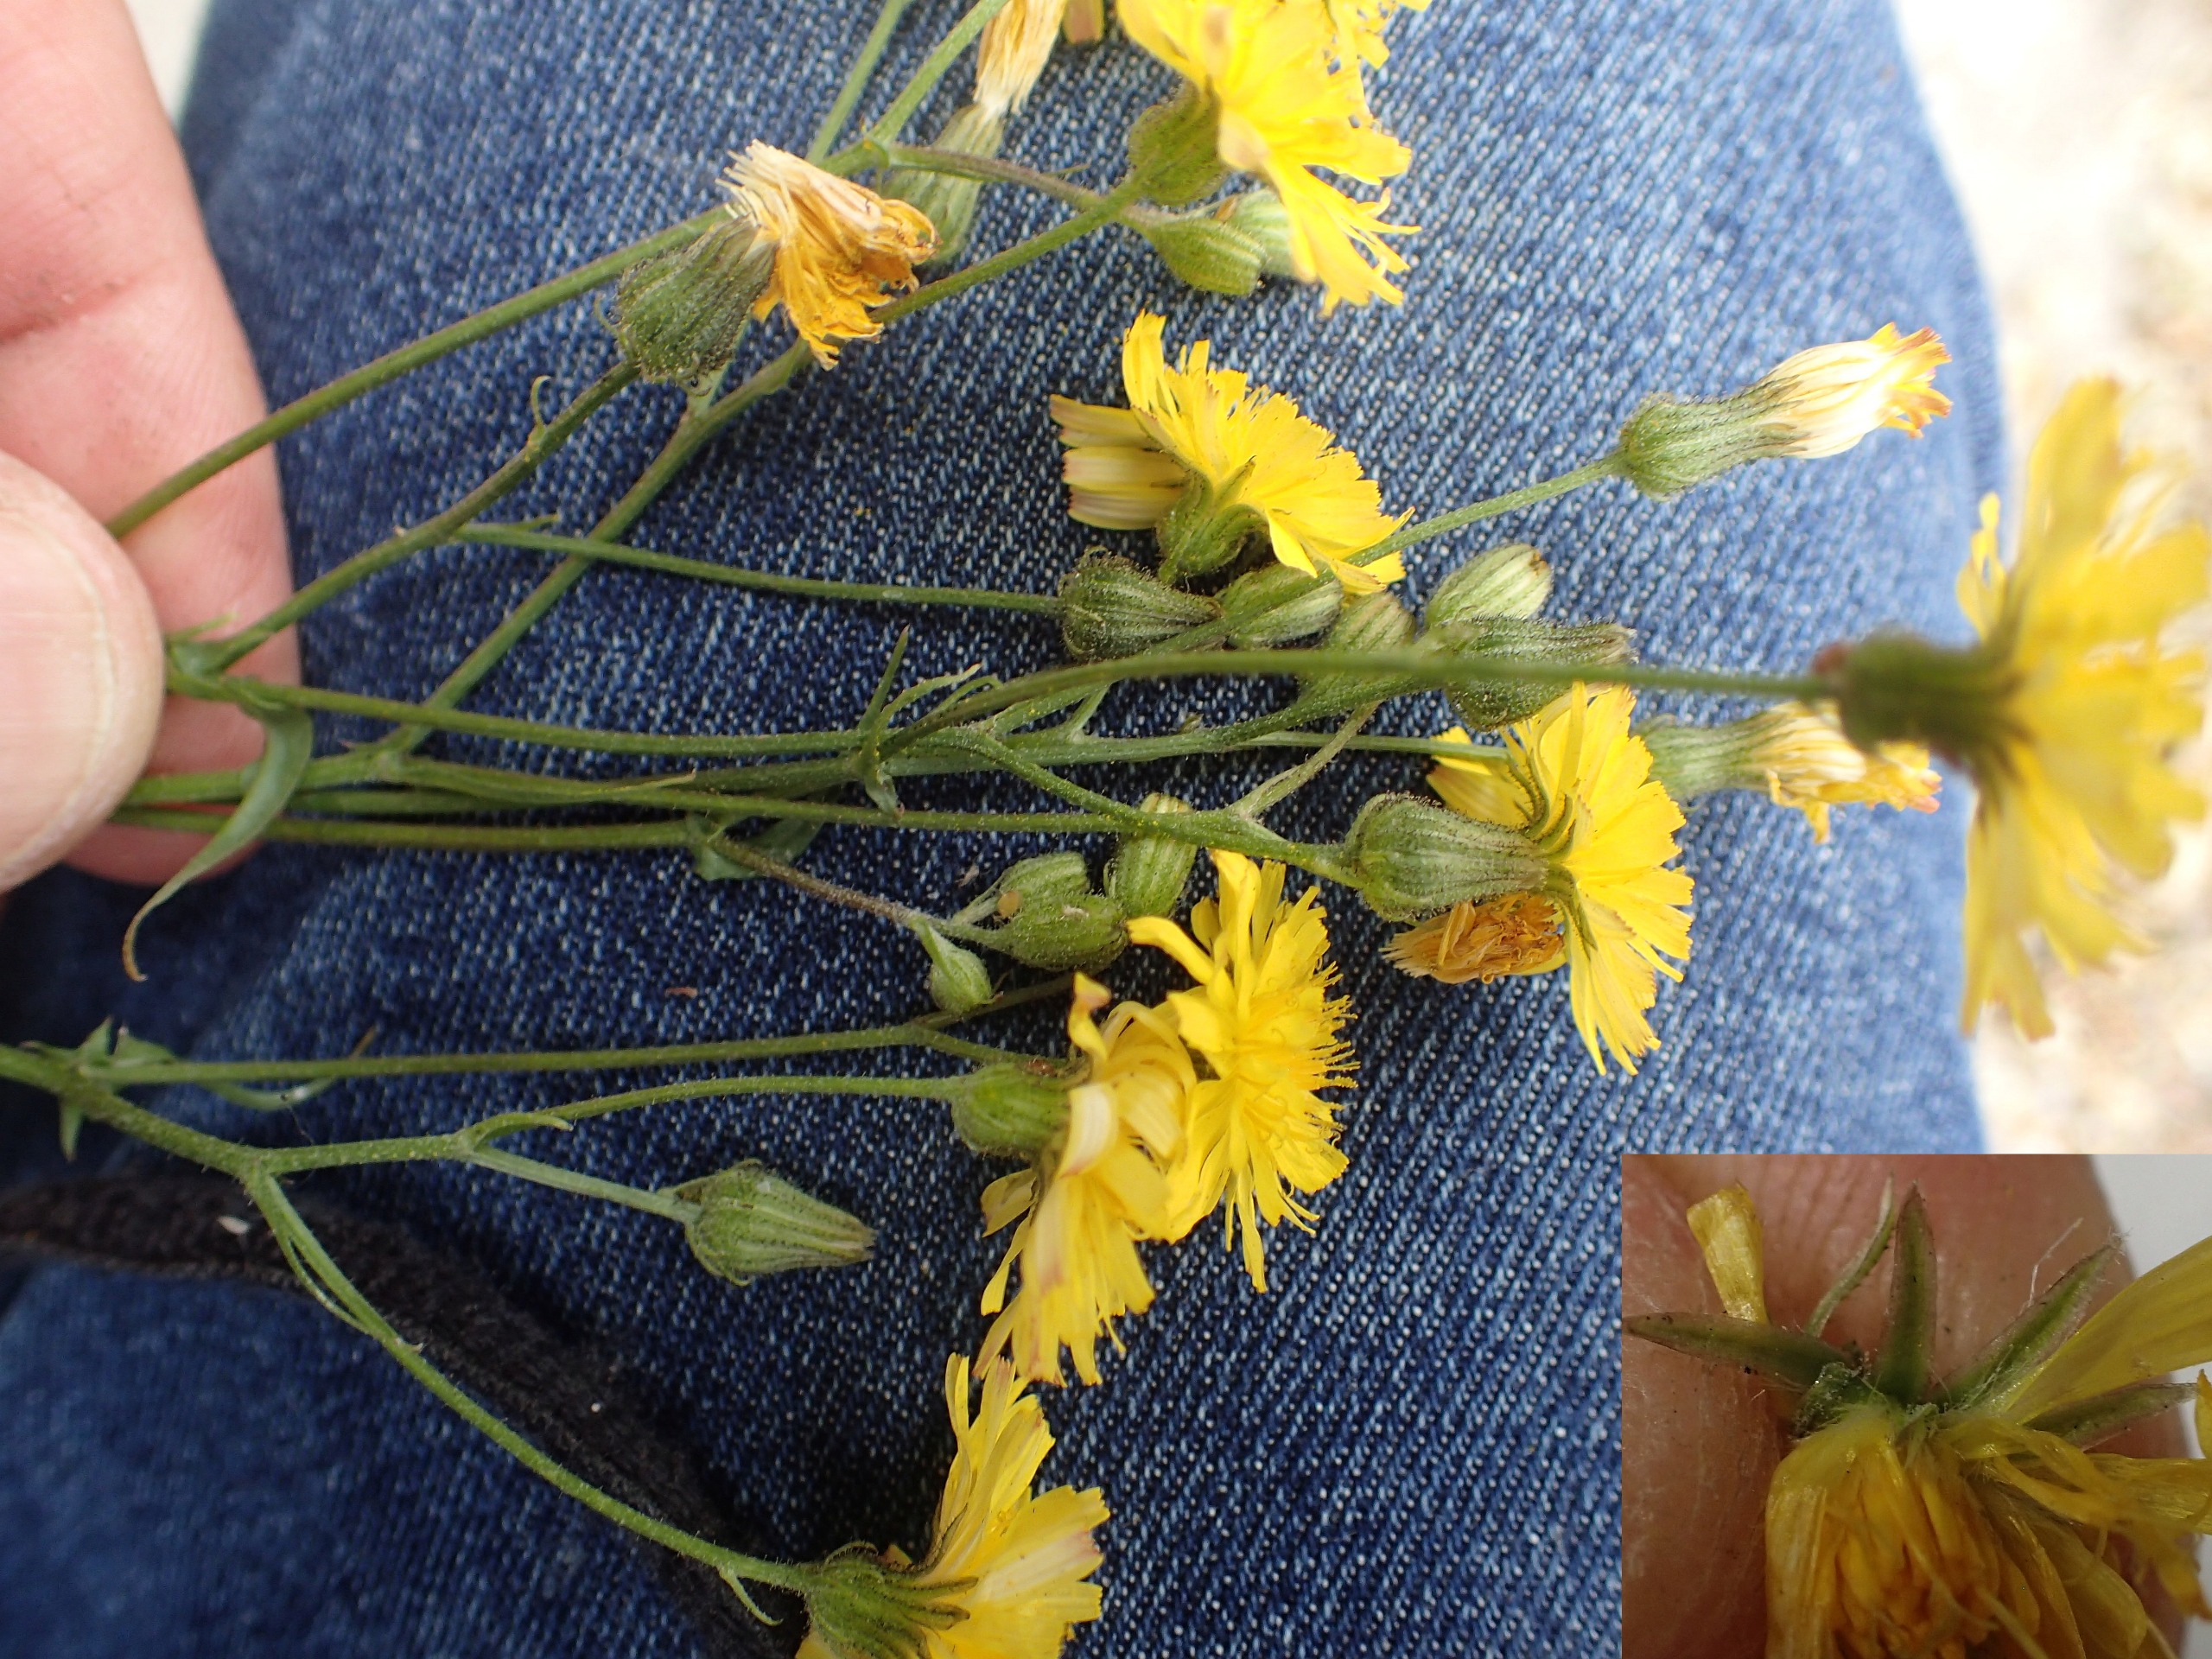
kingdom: Plantae
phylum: Tracheophyta
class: Magnoliopsida
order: Asterales
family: Asteraceae
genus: Crepis
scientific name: Crepis capillaris
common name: Grøn høgeskæg
